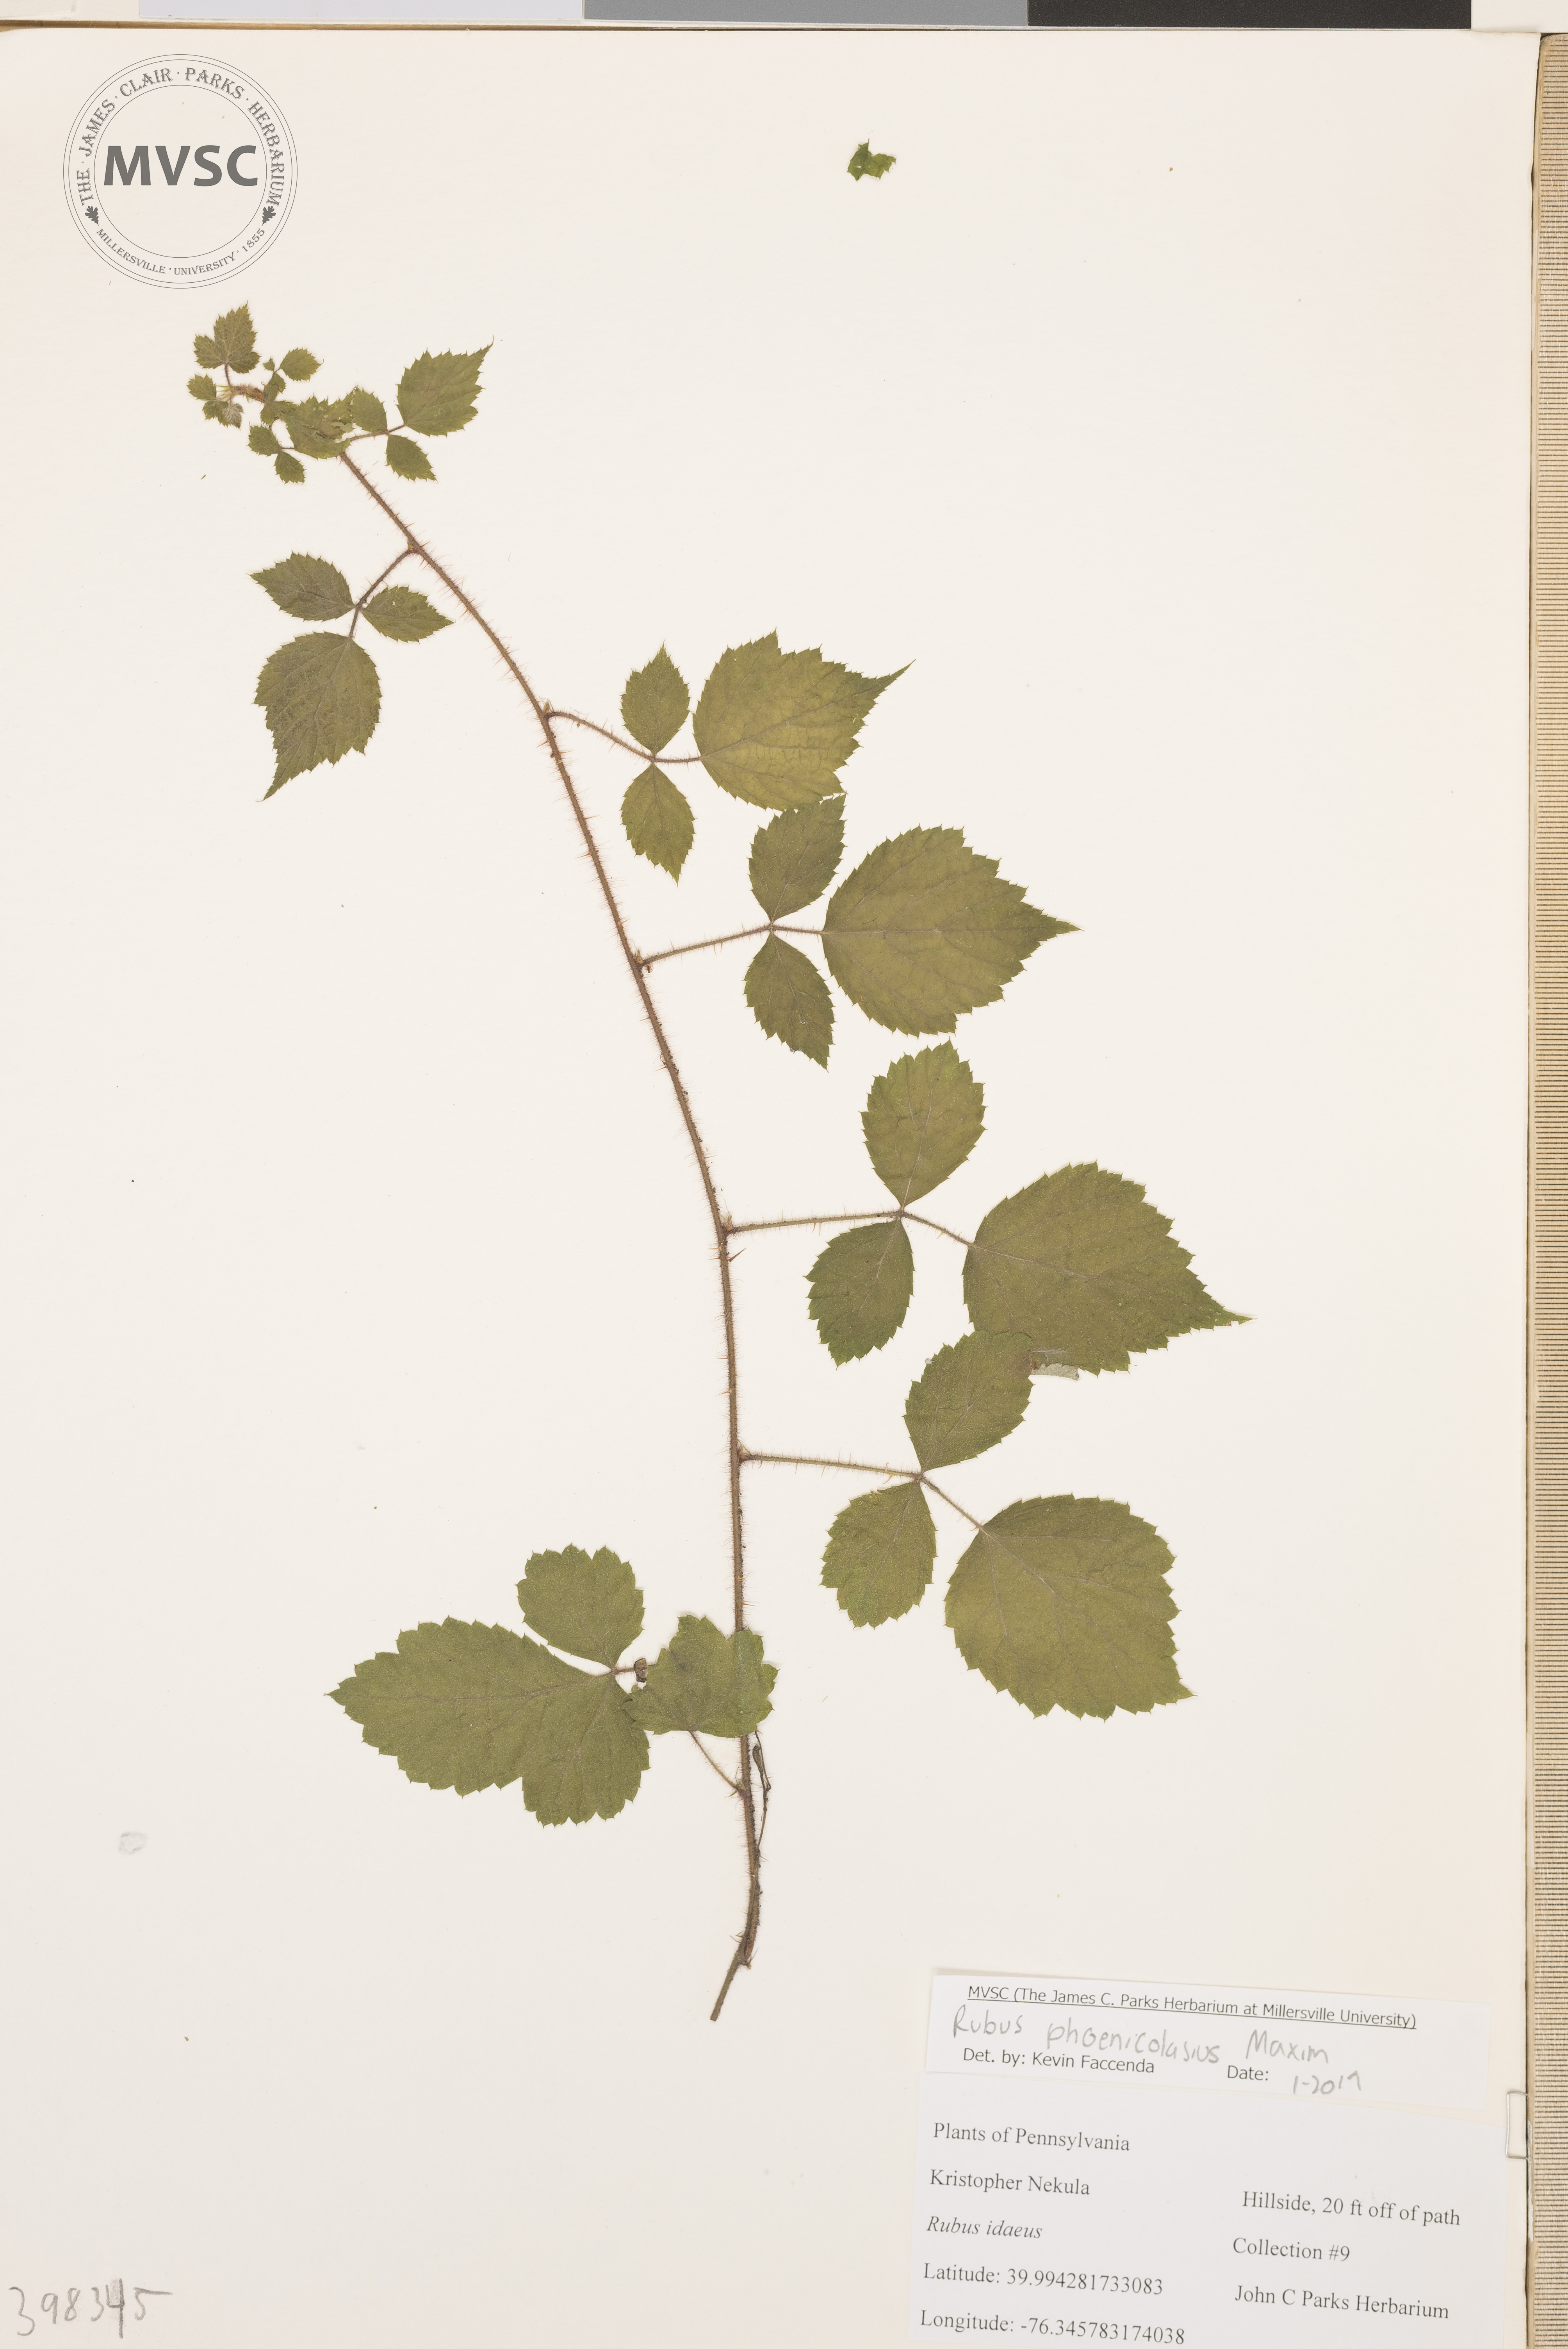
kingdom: Plantae
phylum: Tracheophyta
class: Magnoliopsida
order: Rosales
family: Rosaceae
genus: Rubus
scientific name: Rubus phoenicolasius
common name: Wineberry
